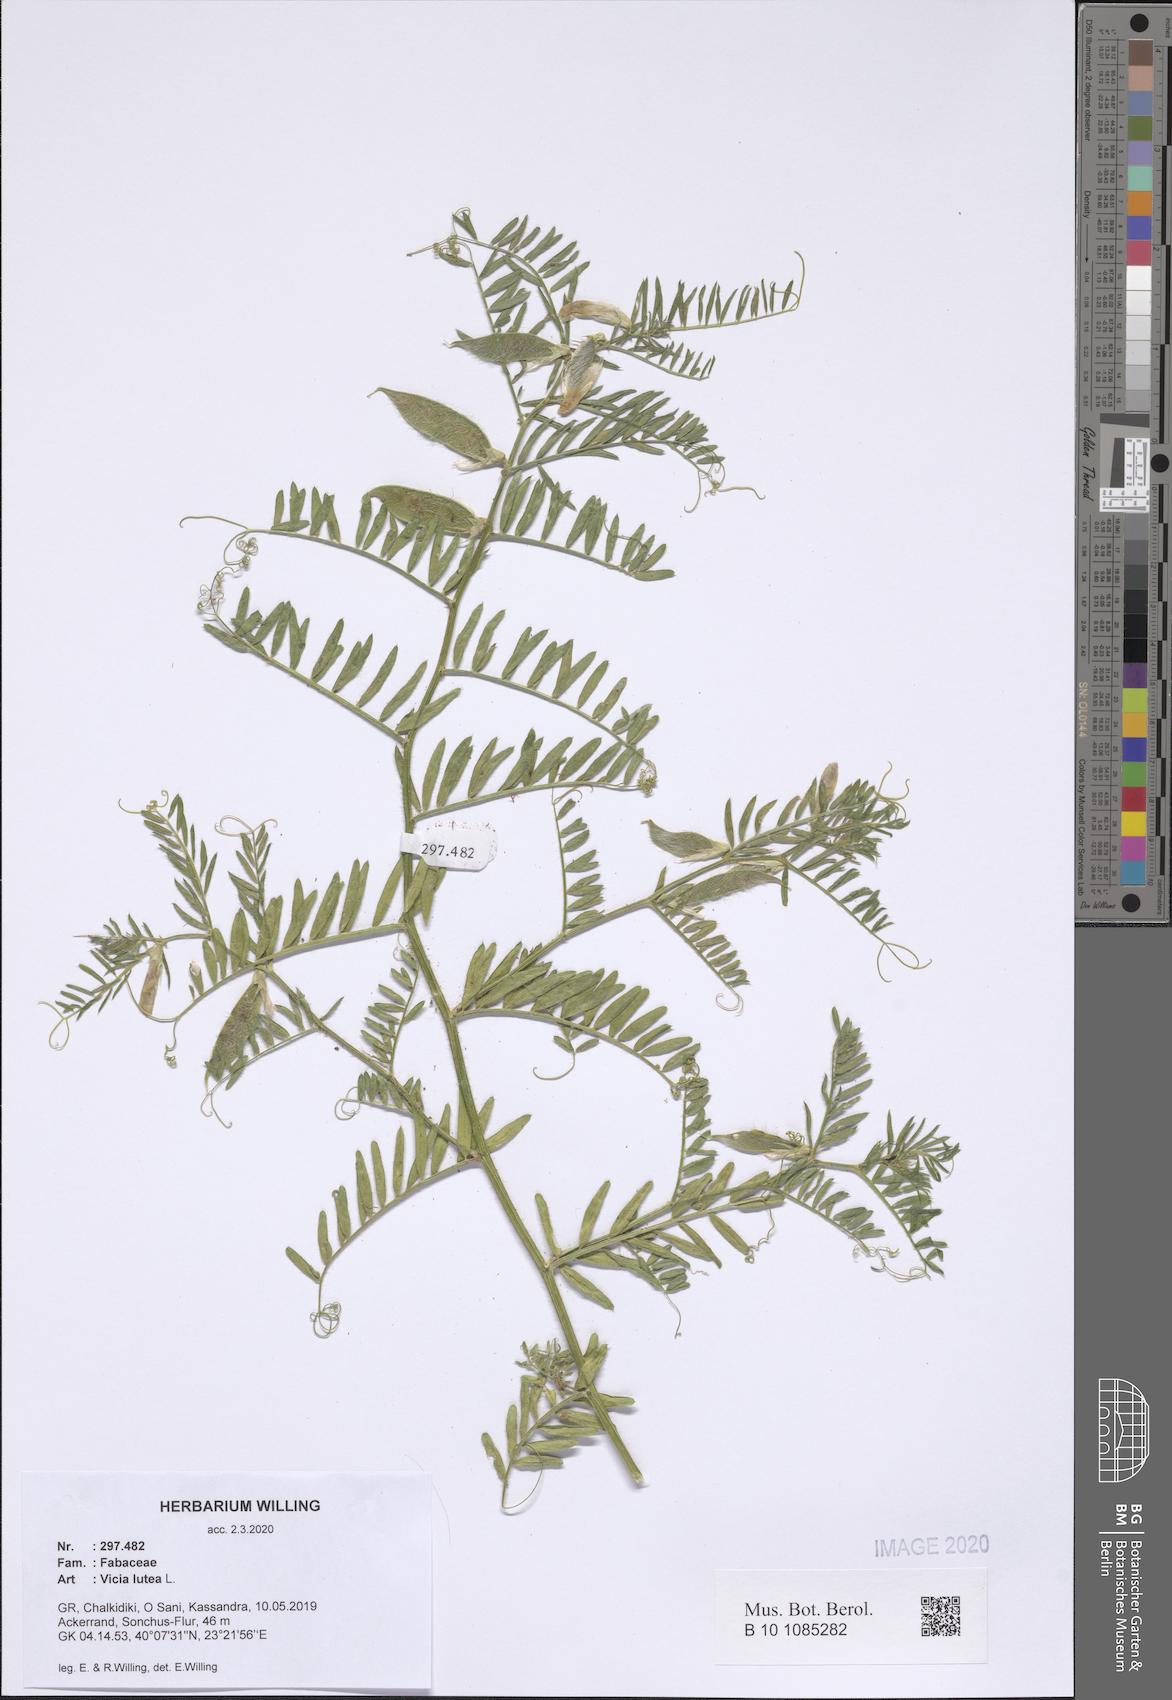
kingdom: Plantae
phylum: Tracheophyta
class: Magnoliopsida
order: Fabales
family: Fabaceae
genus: Vicia
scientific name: Vicia lutea
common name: Smooth yellow vetch
